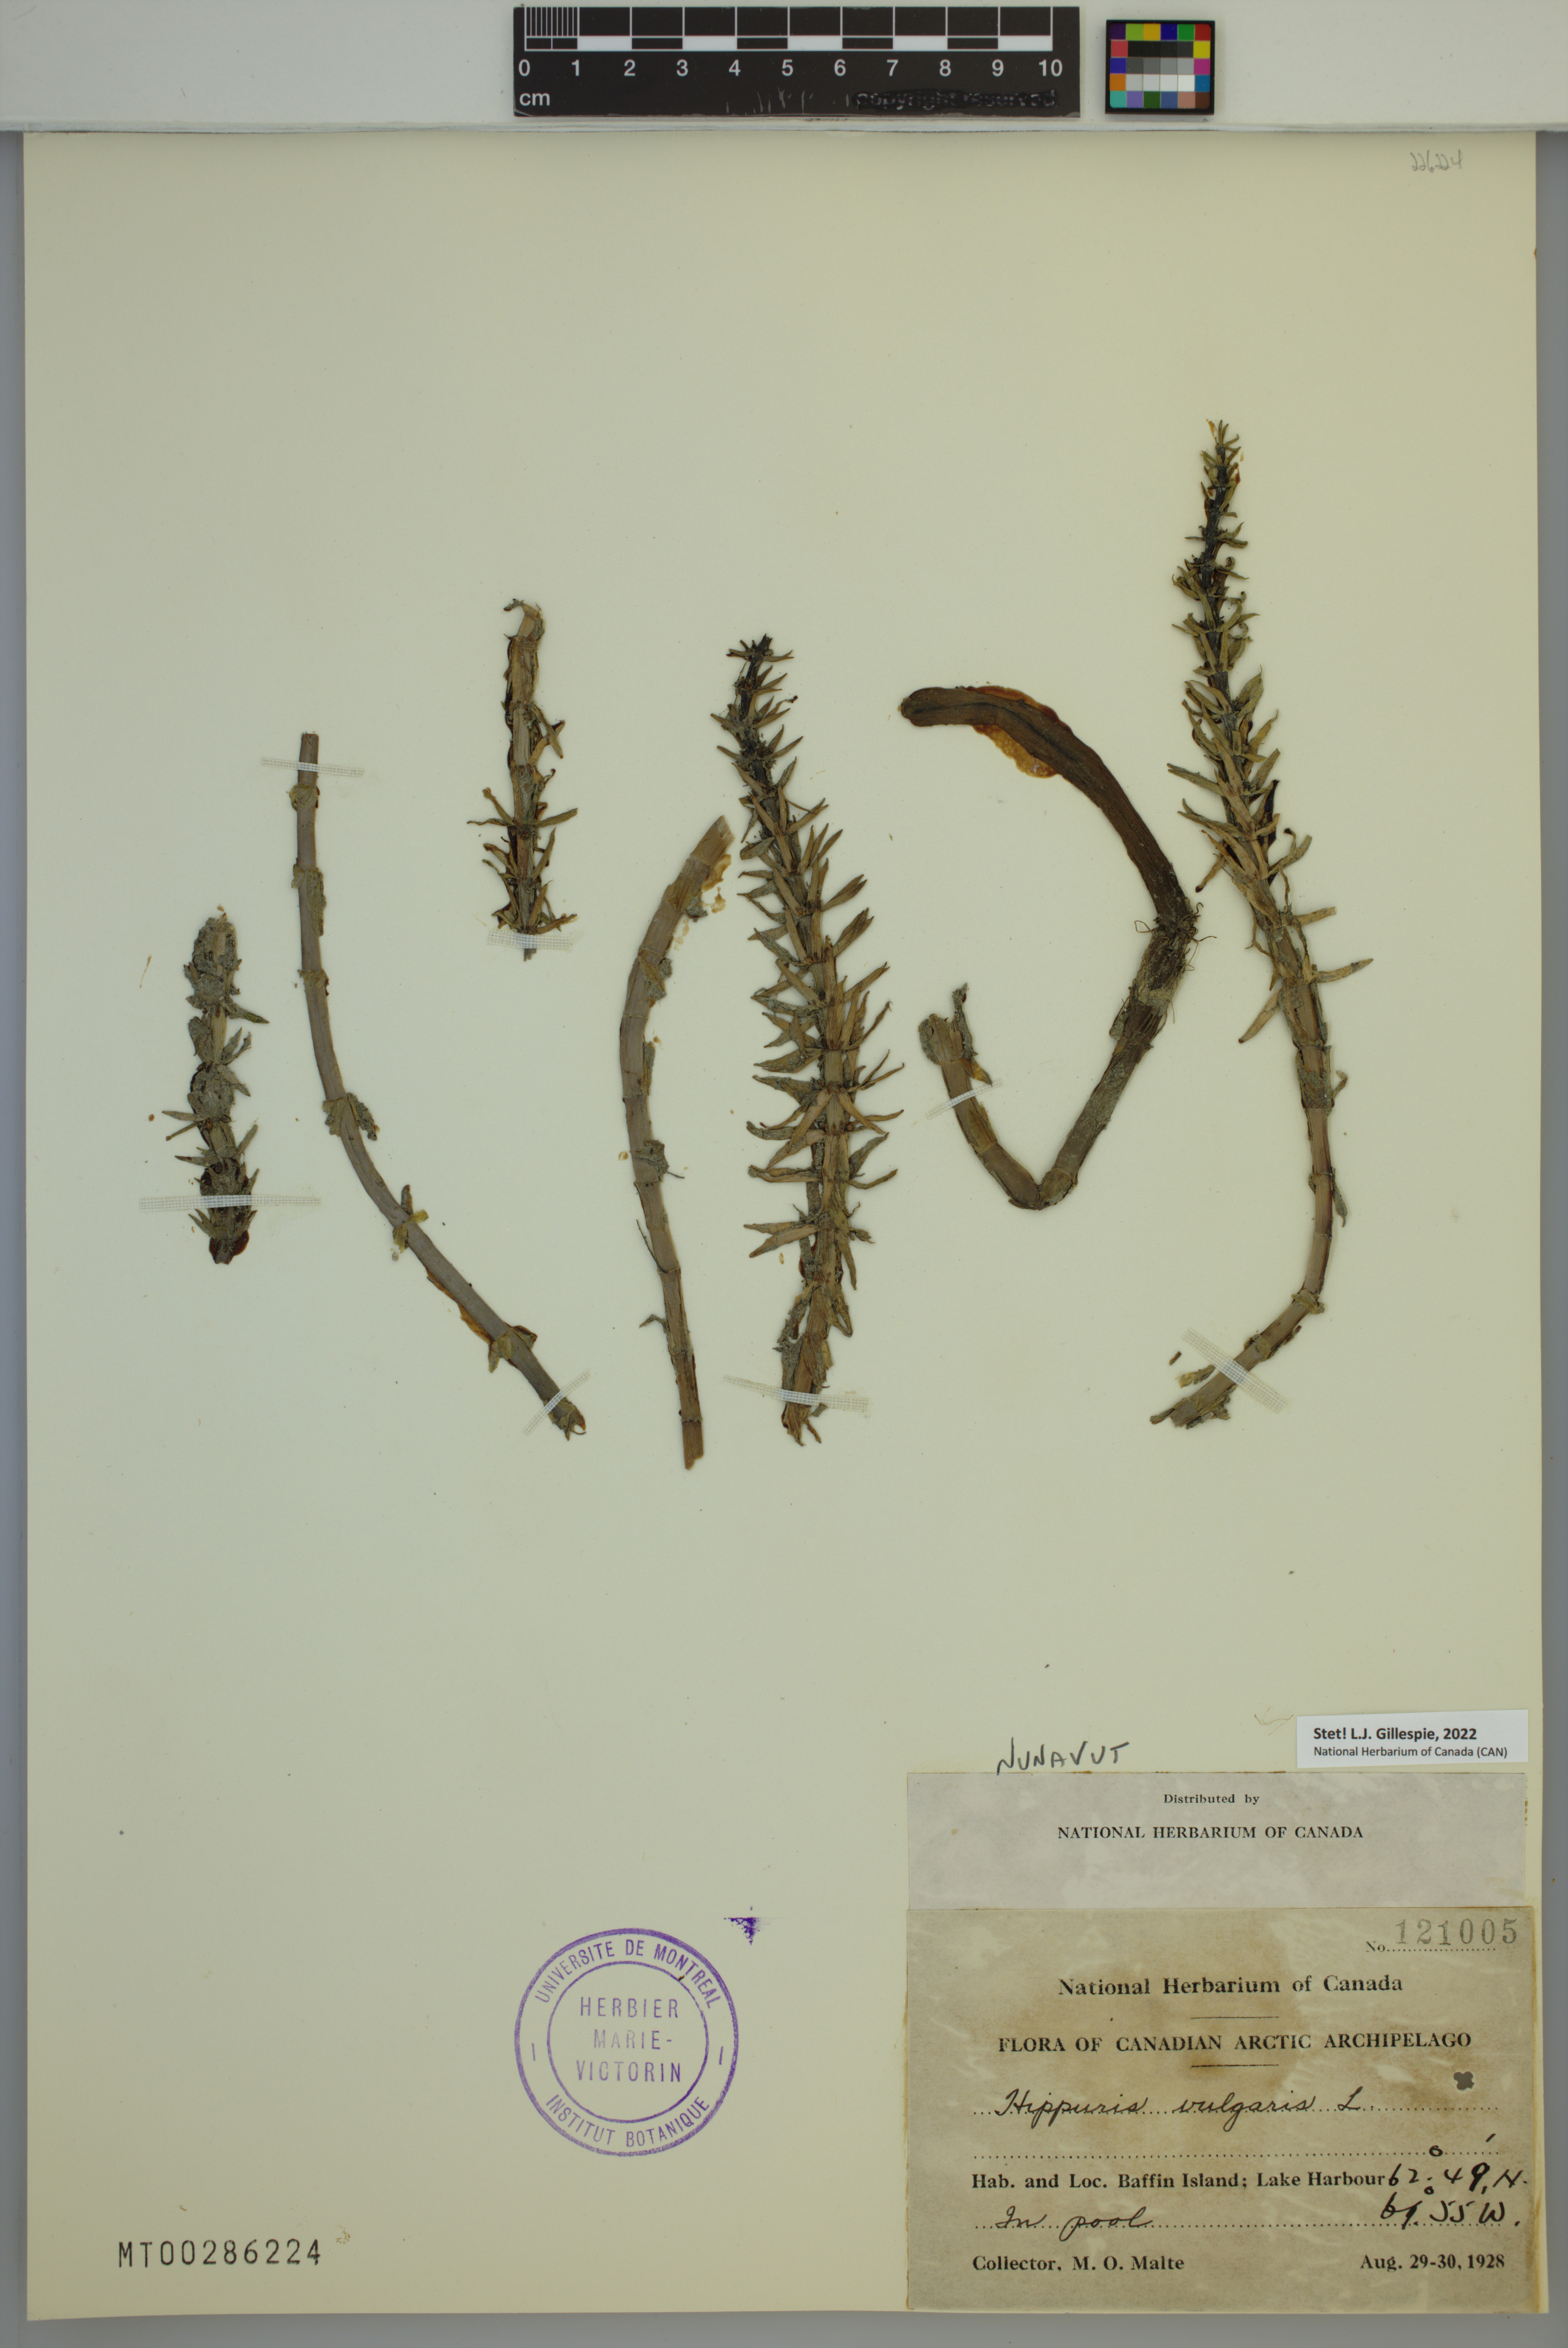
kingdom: Plantae
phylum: Tracheophyta
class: Magnoliopsida
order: Lamiales
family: Plantaginaceae
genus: Hippuris
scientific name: Hippuris vulgaris
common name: Mare's-tail
